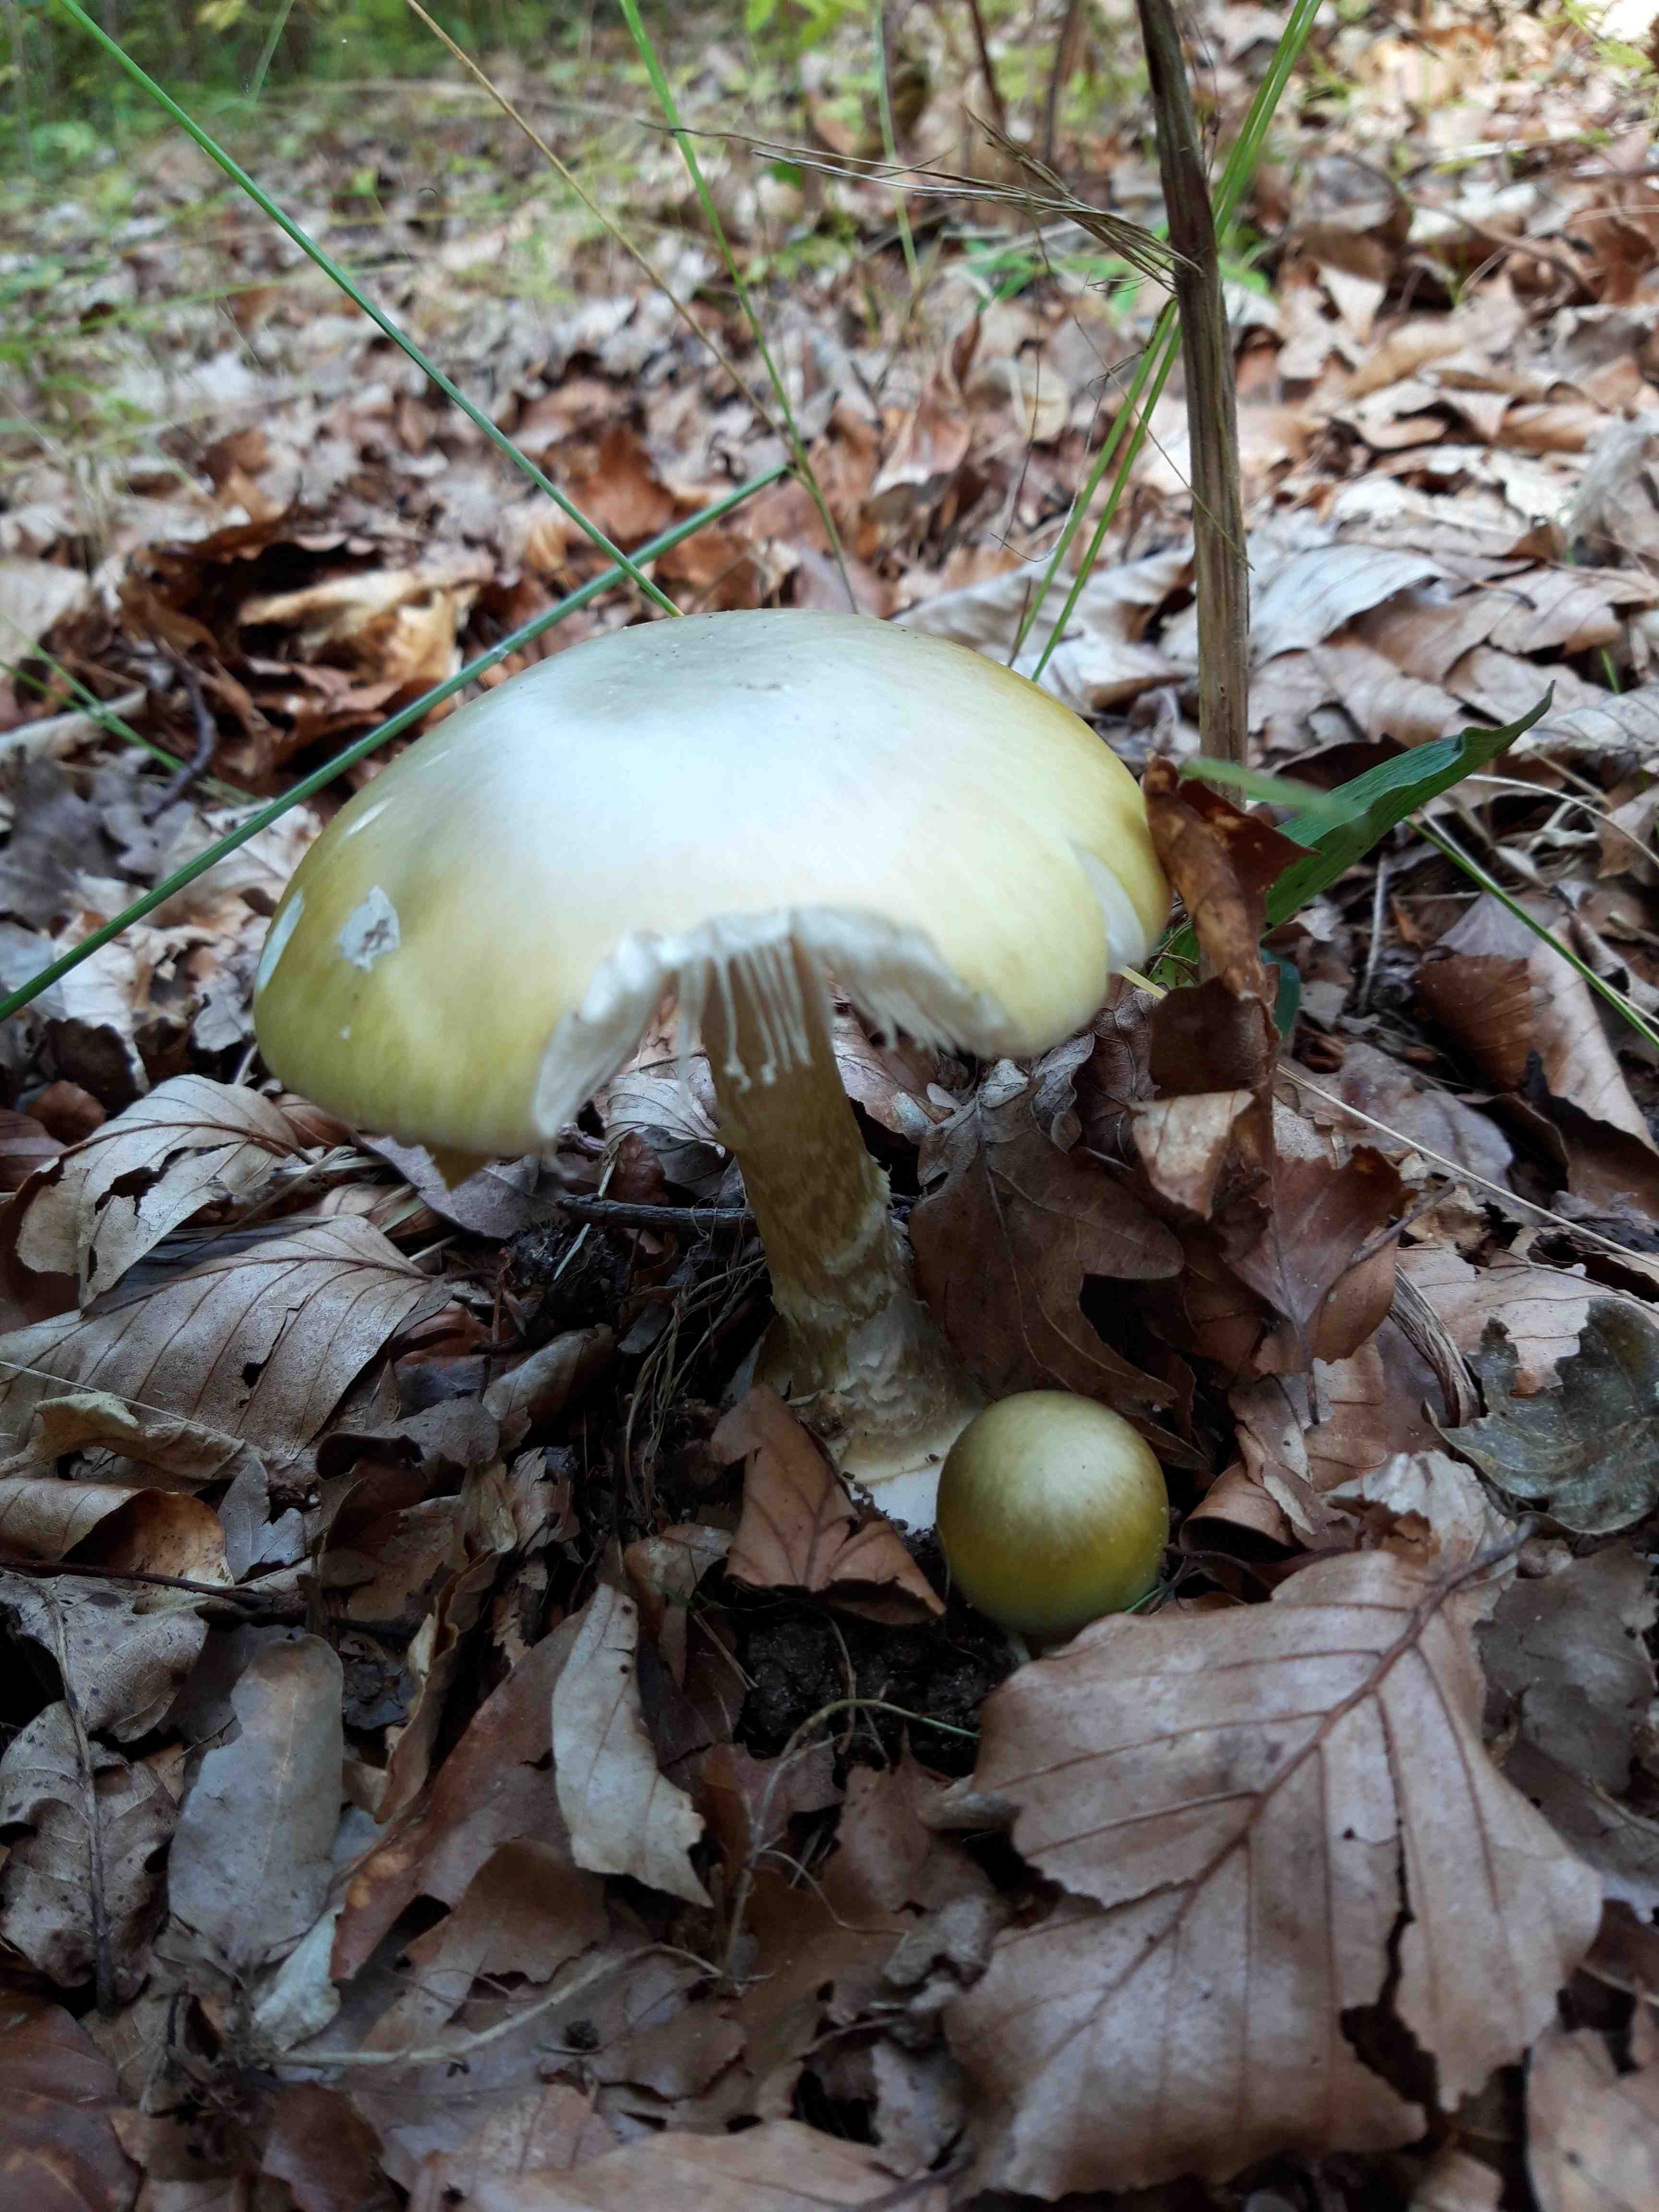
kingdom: Fungi
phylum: Basidiomycota
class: Agaricomycetes
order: Agaricales
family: Amanitaceae
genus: Amanita
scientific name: Amanita phalloides
